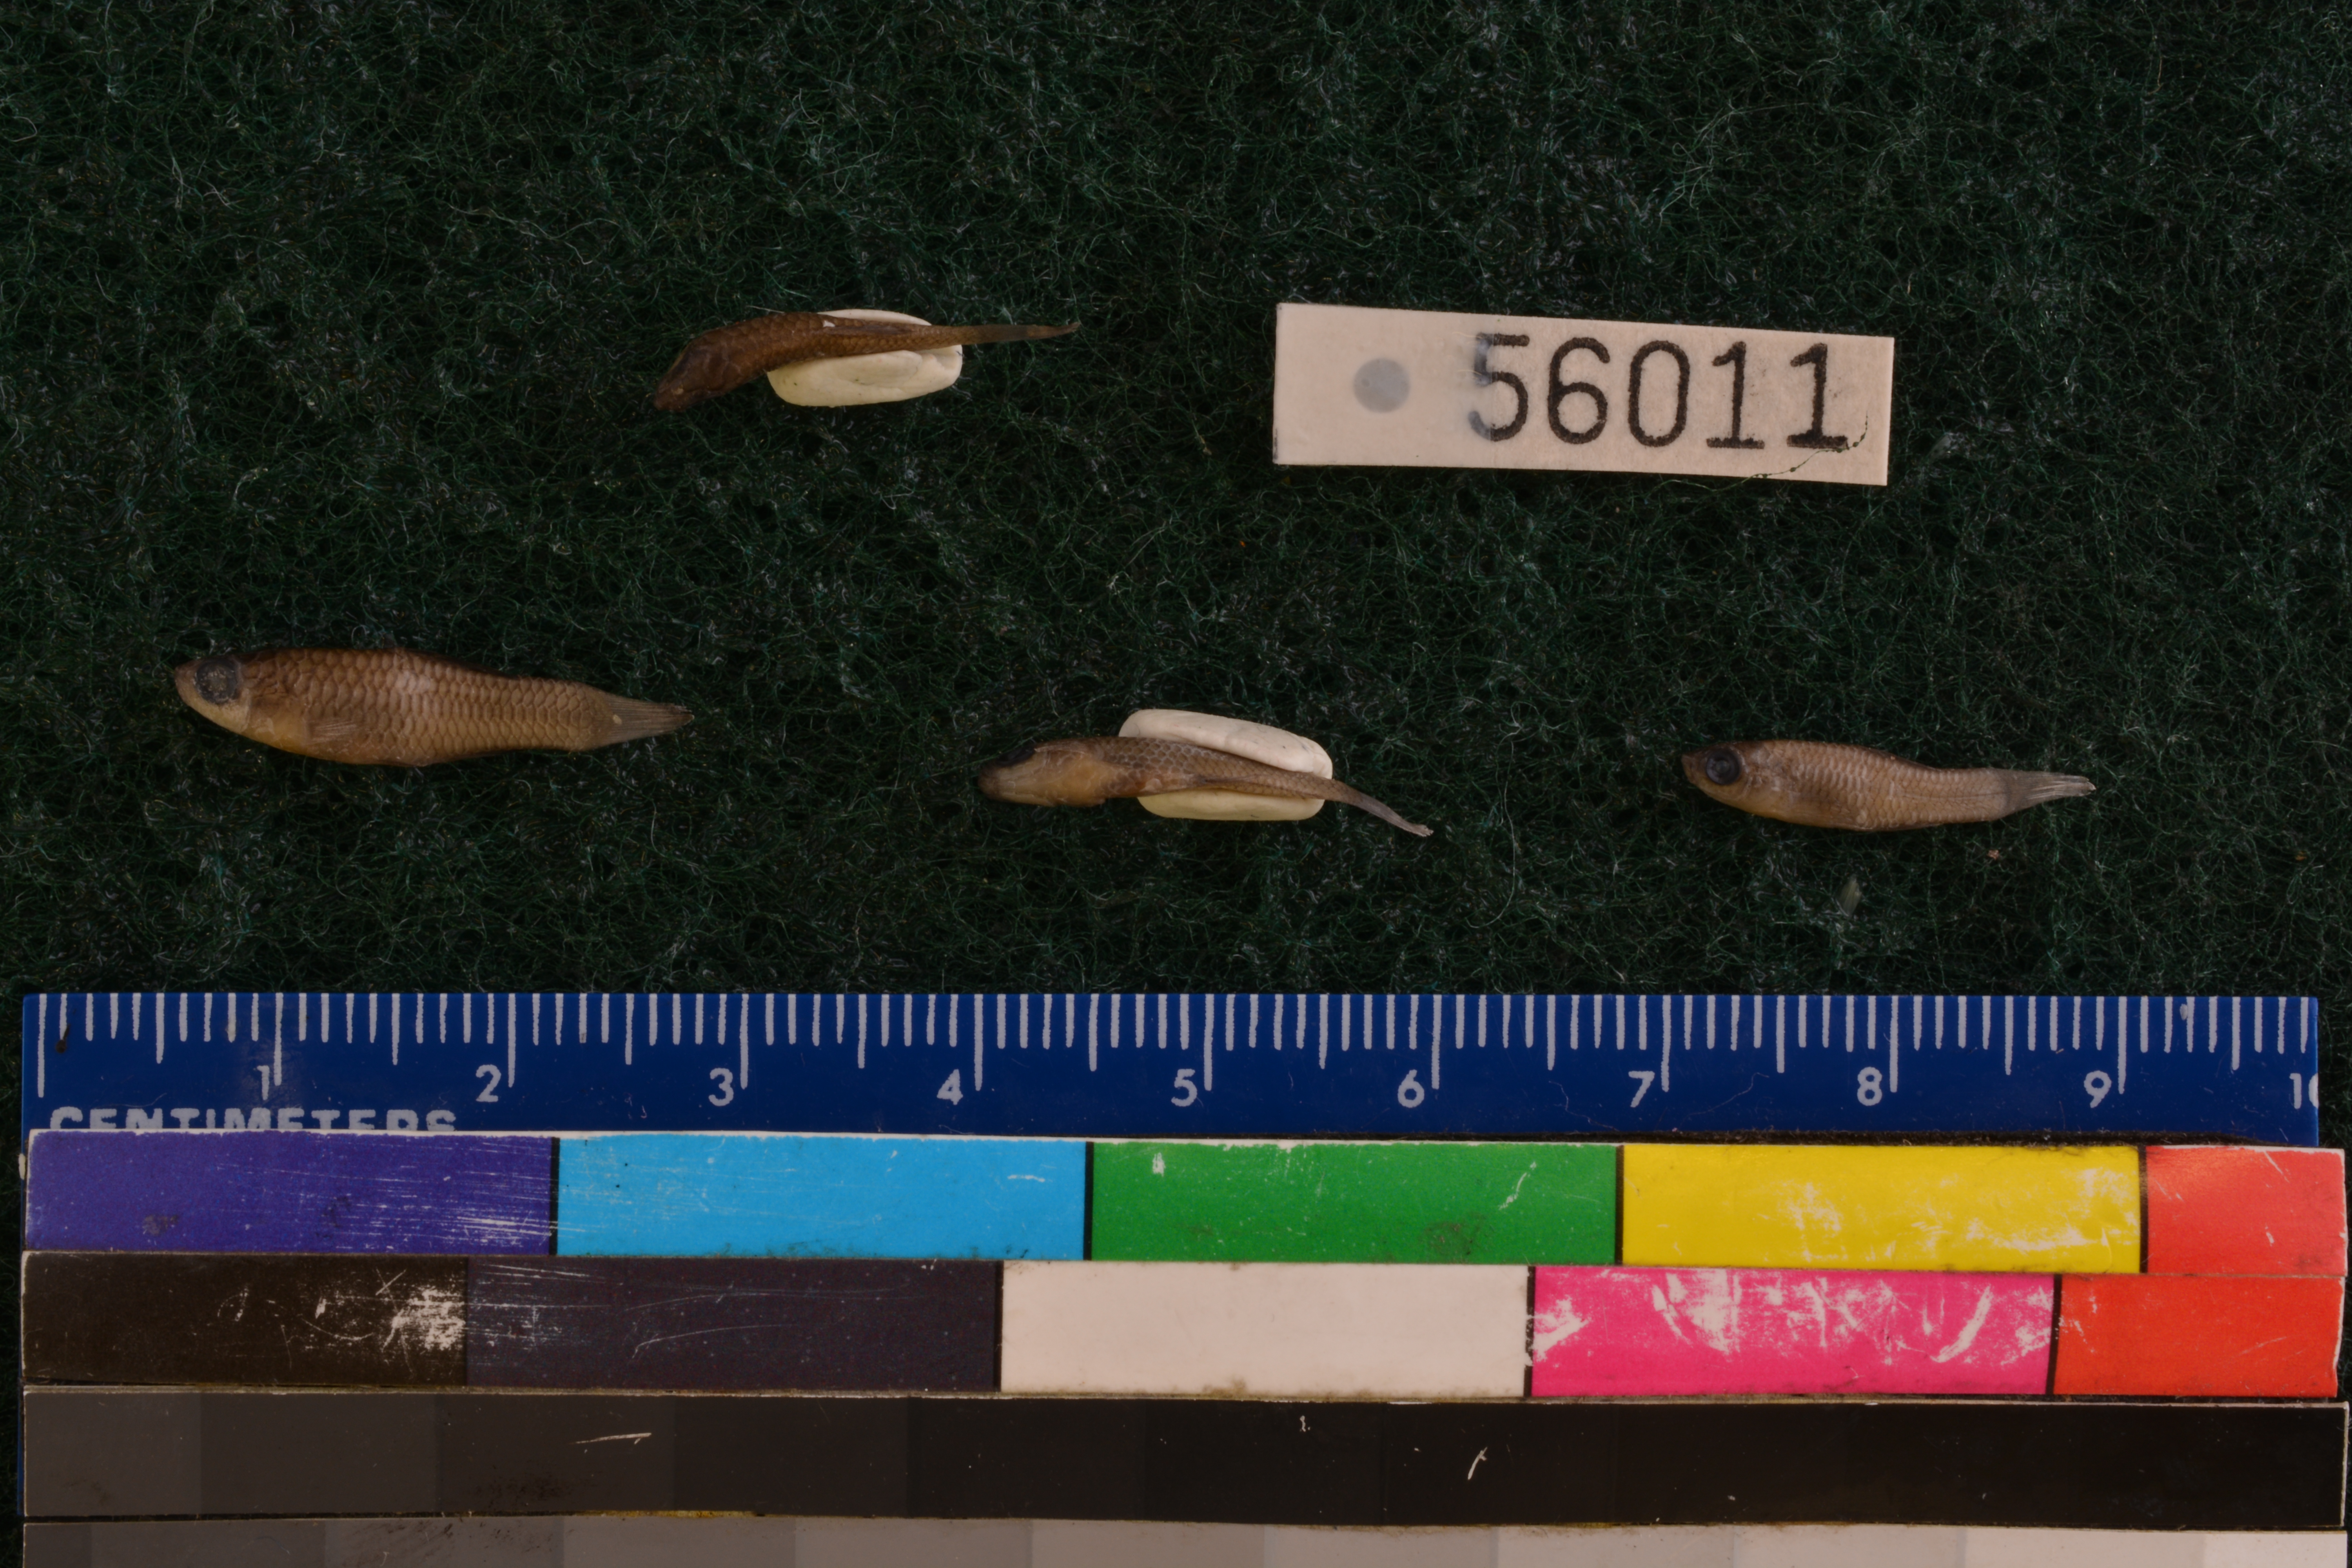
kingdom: Animalia
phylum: Chordata
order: Cyprinodontiformes
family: Fundulidae
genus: Lucania
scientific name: Lucania parva
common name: Rainwater killifish
